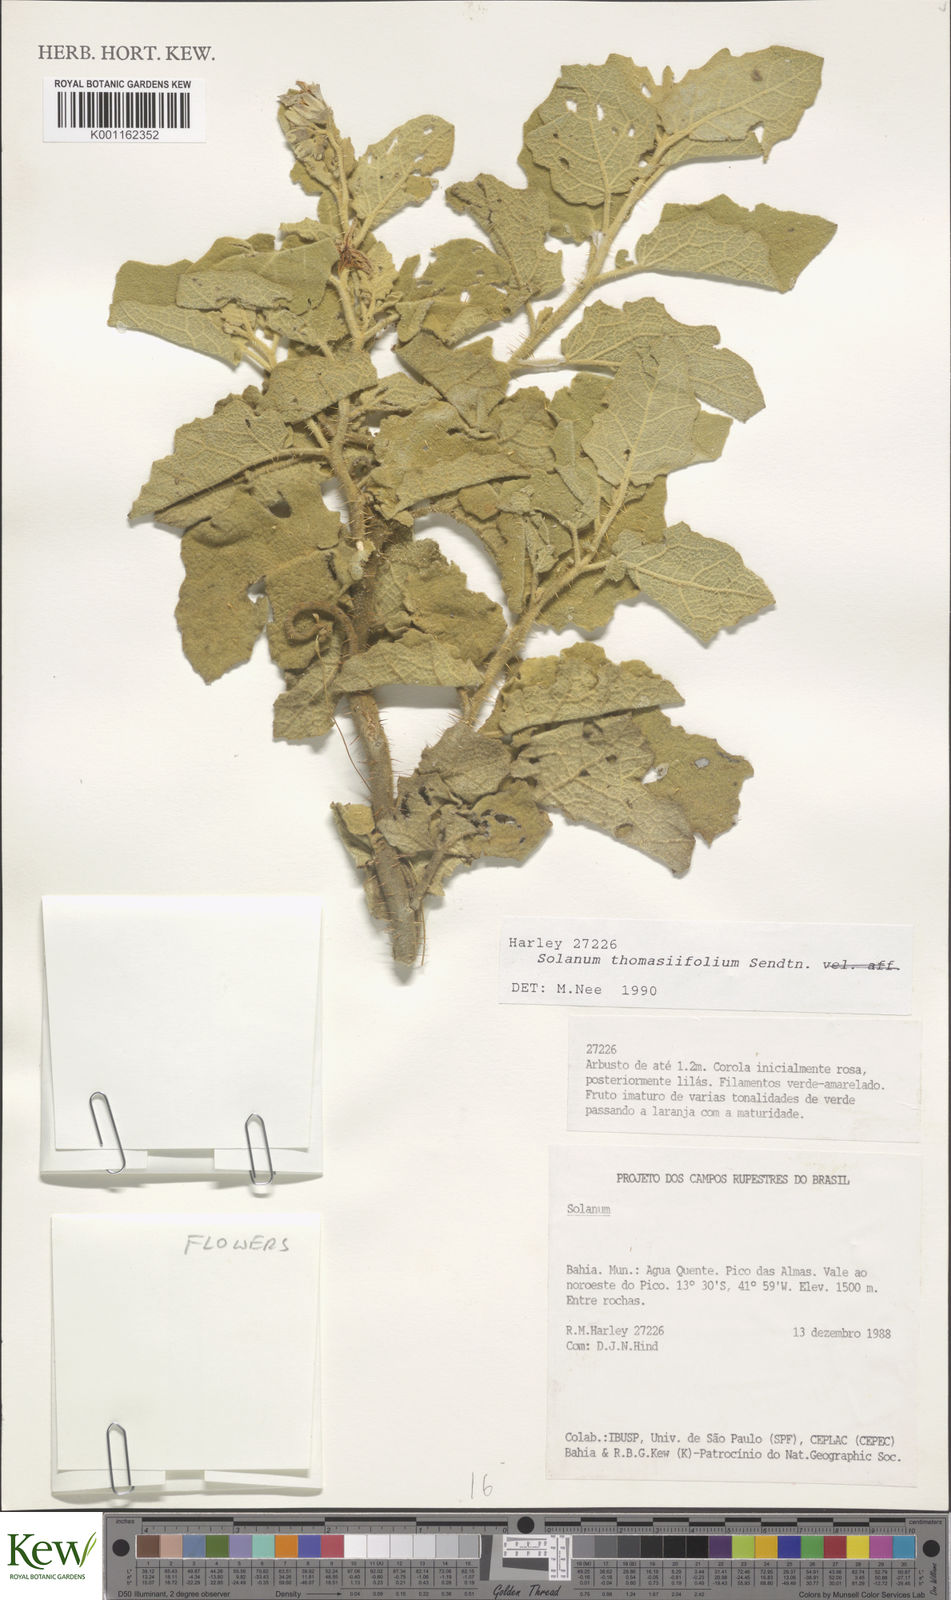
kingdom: Plantae
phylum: Tracheophyta
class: Magnoliopsida
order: Solanales
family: Solanaceae
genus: Solanum
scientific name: Solanum thomasiifolium
